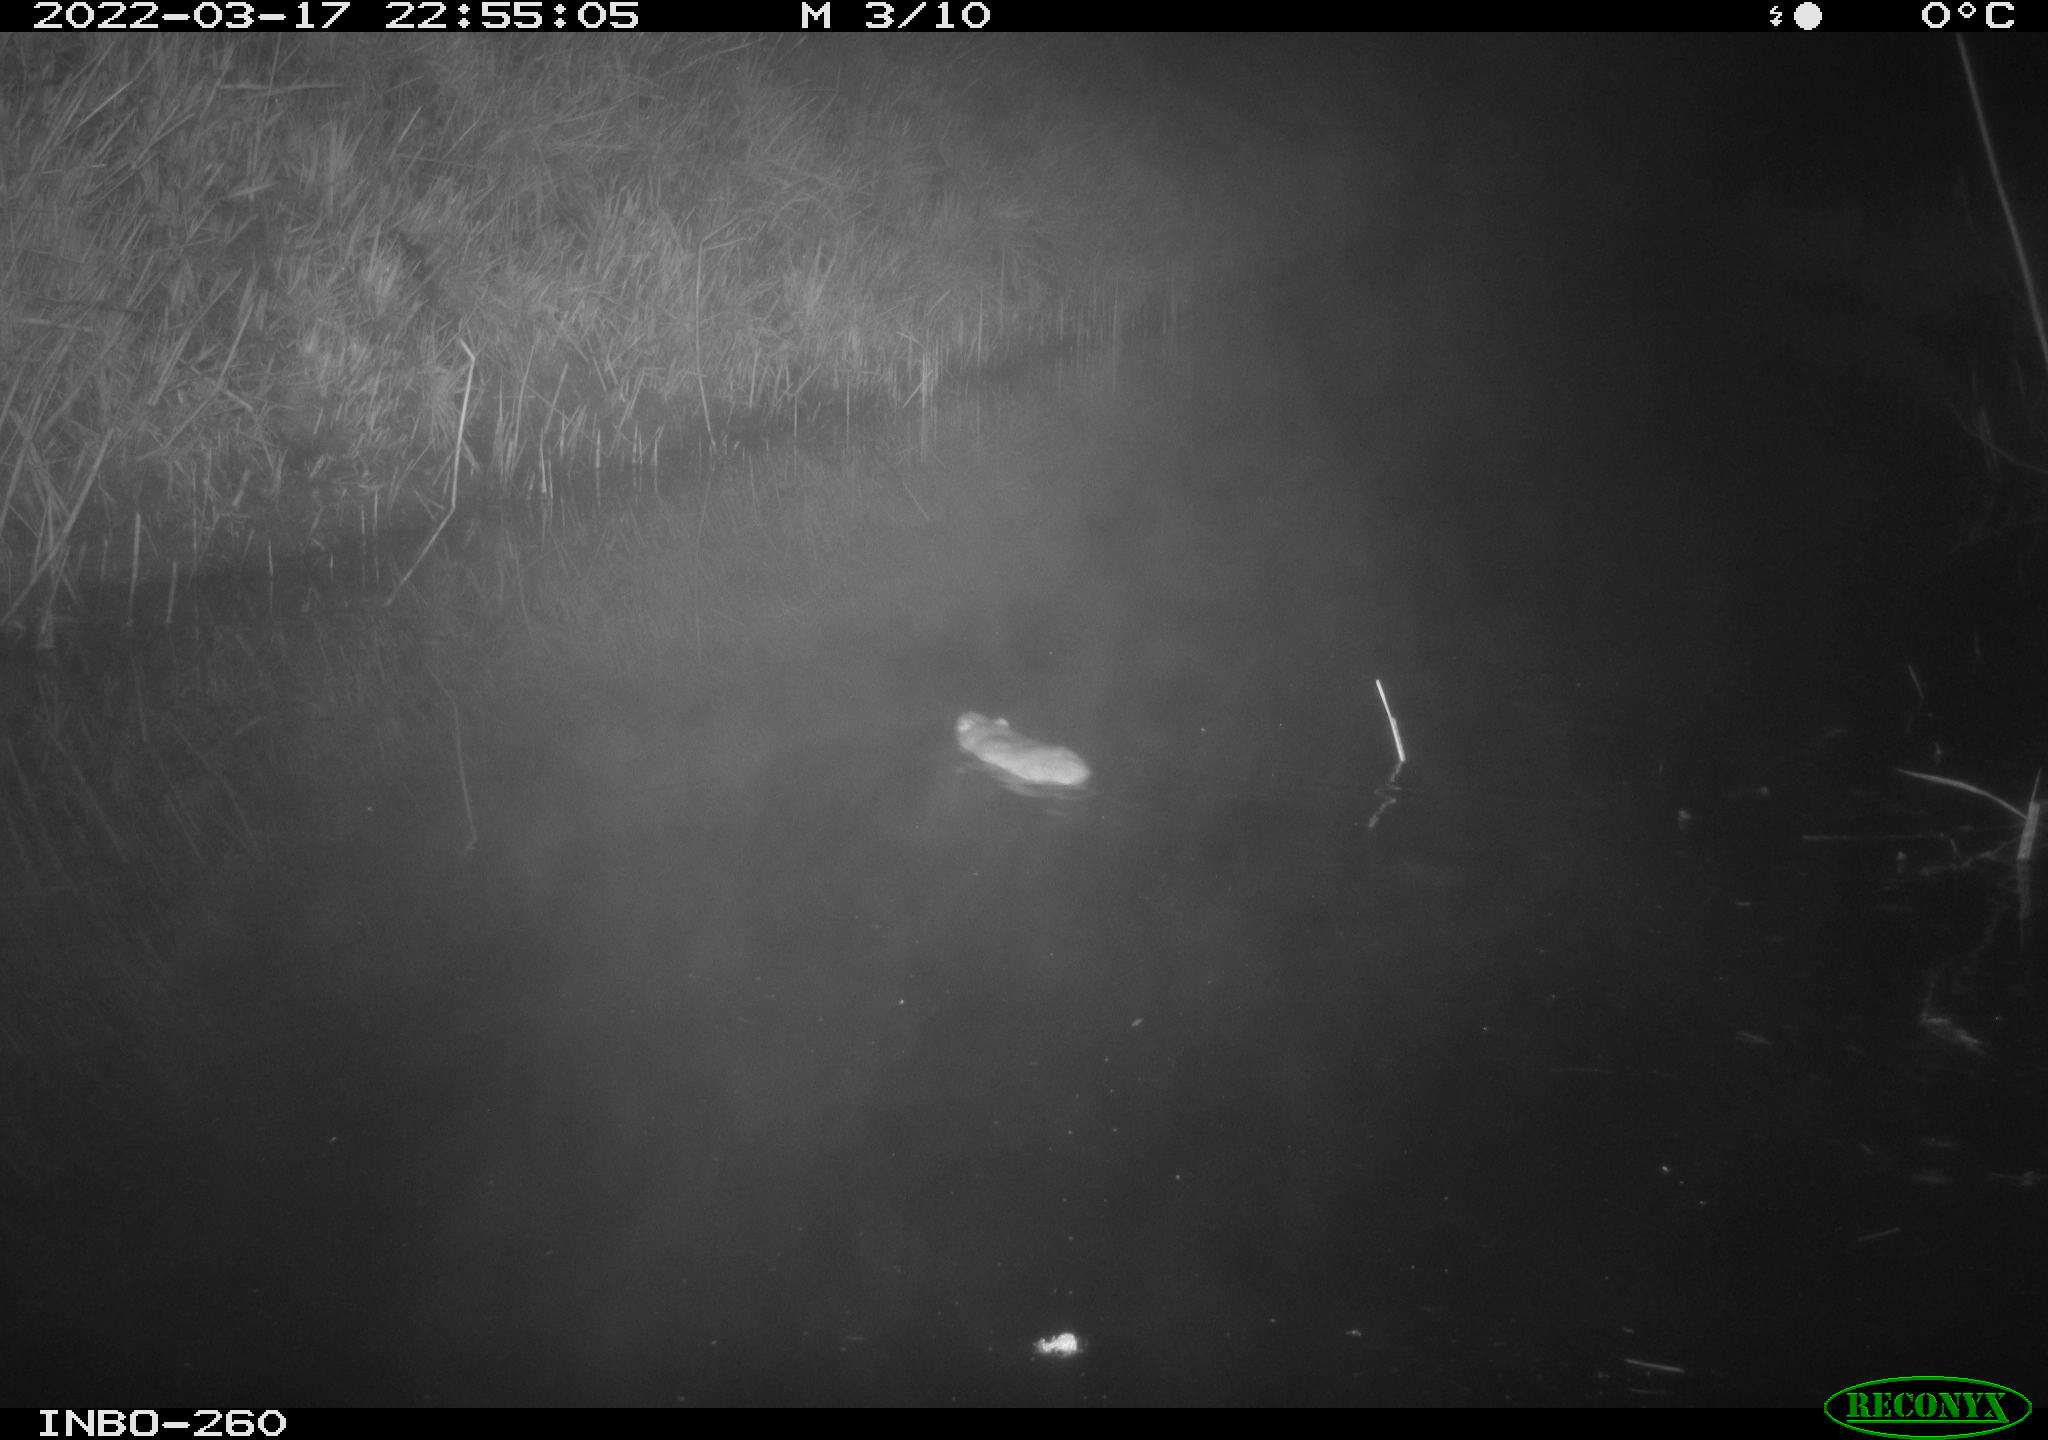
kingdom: Animalia
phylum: Chordata
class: Mammalia
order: Rodentia
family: Muridae
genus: Rattus
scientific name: Rattus norvegicus
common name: Brown rat
